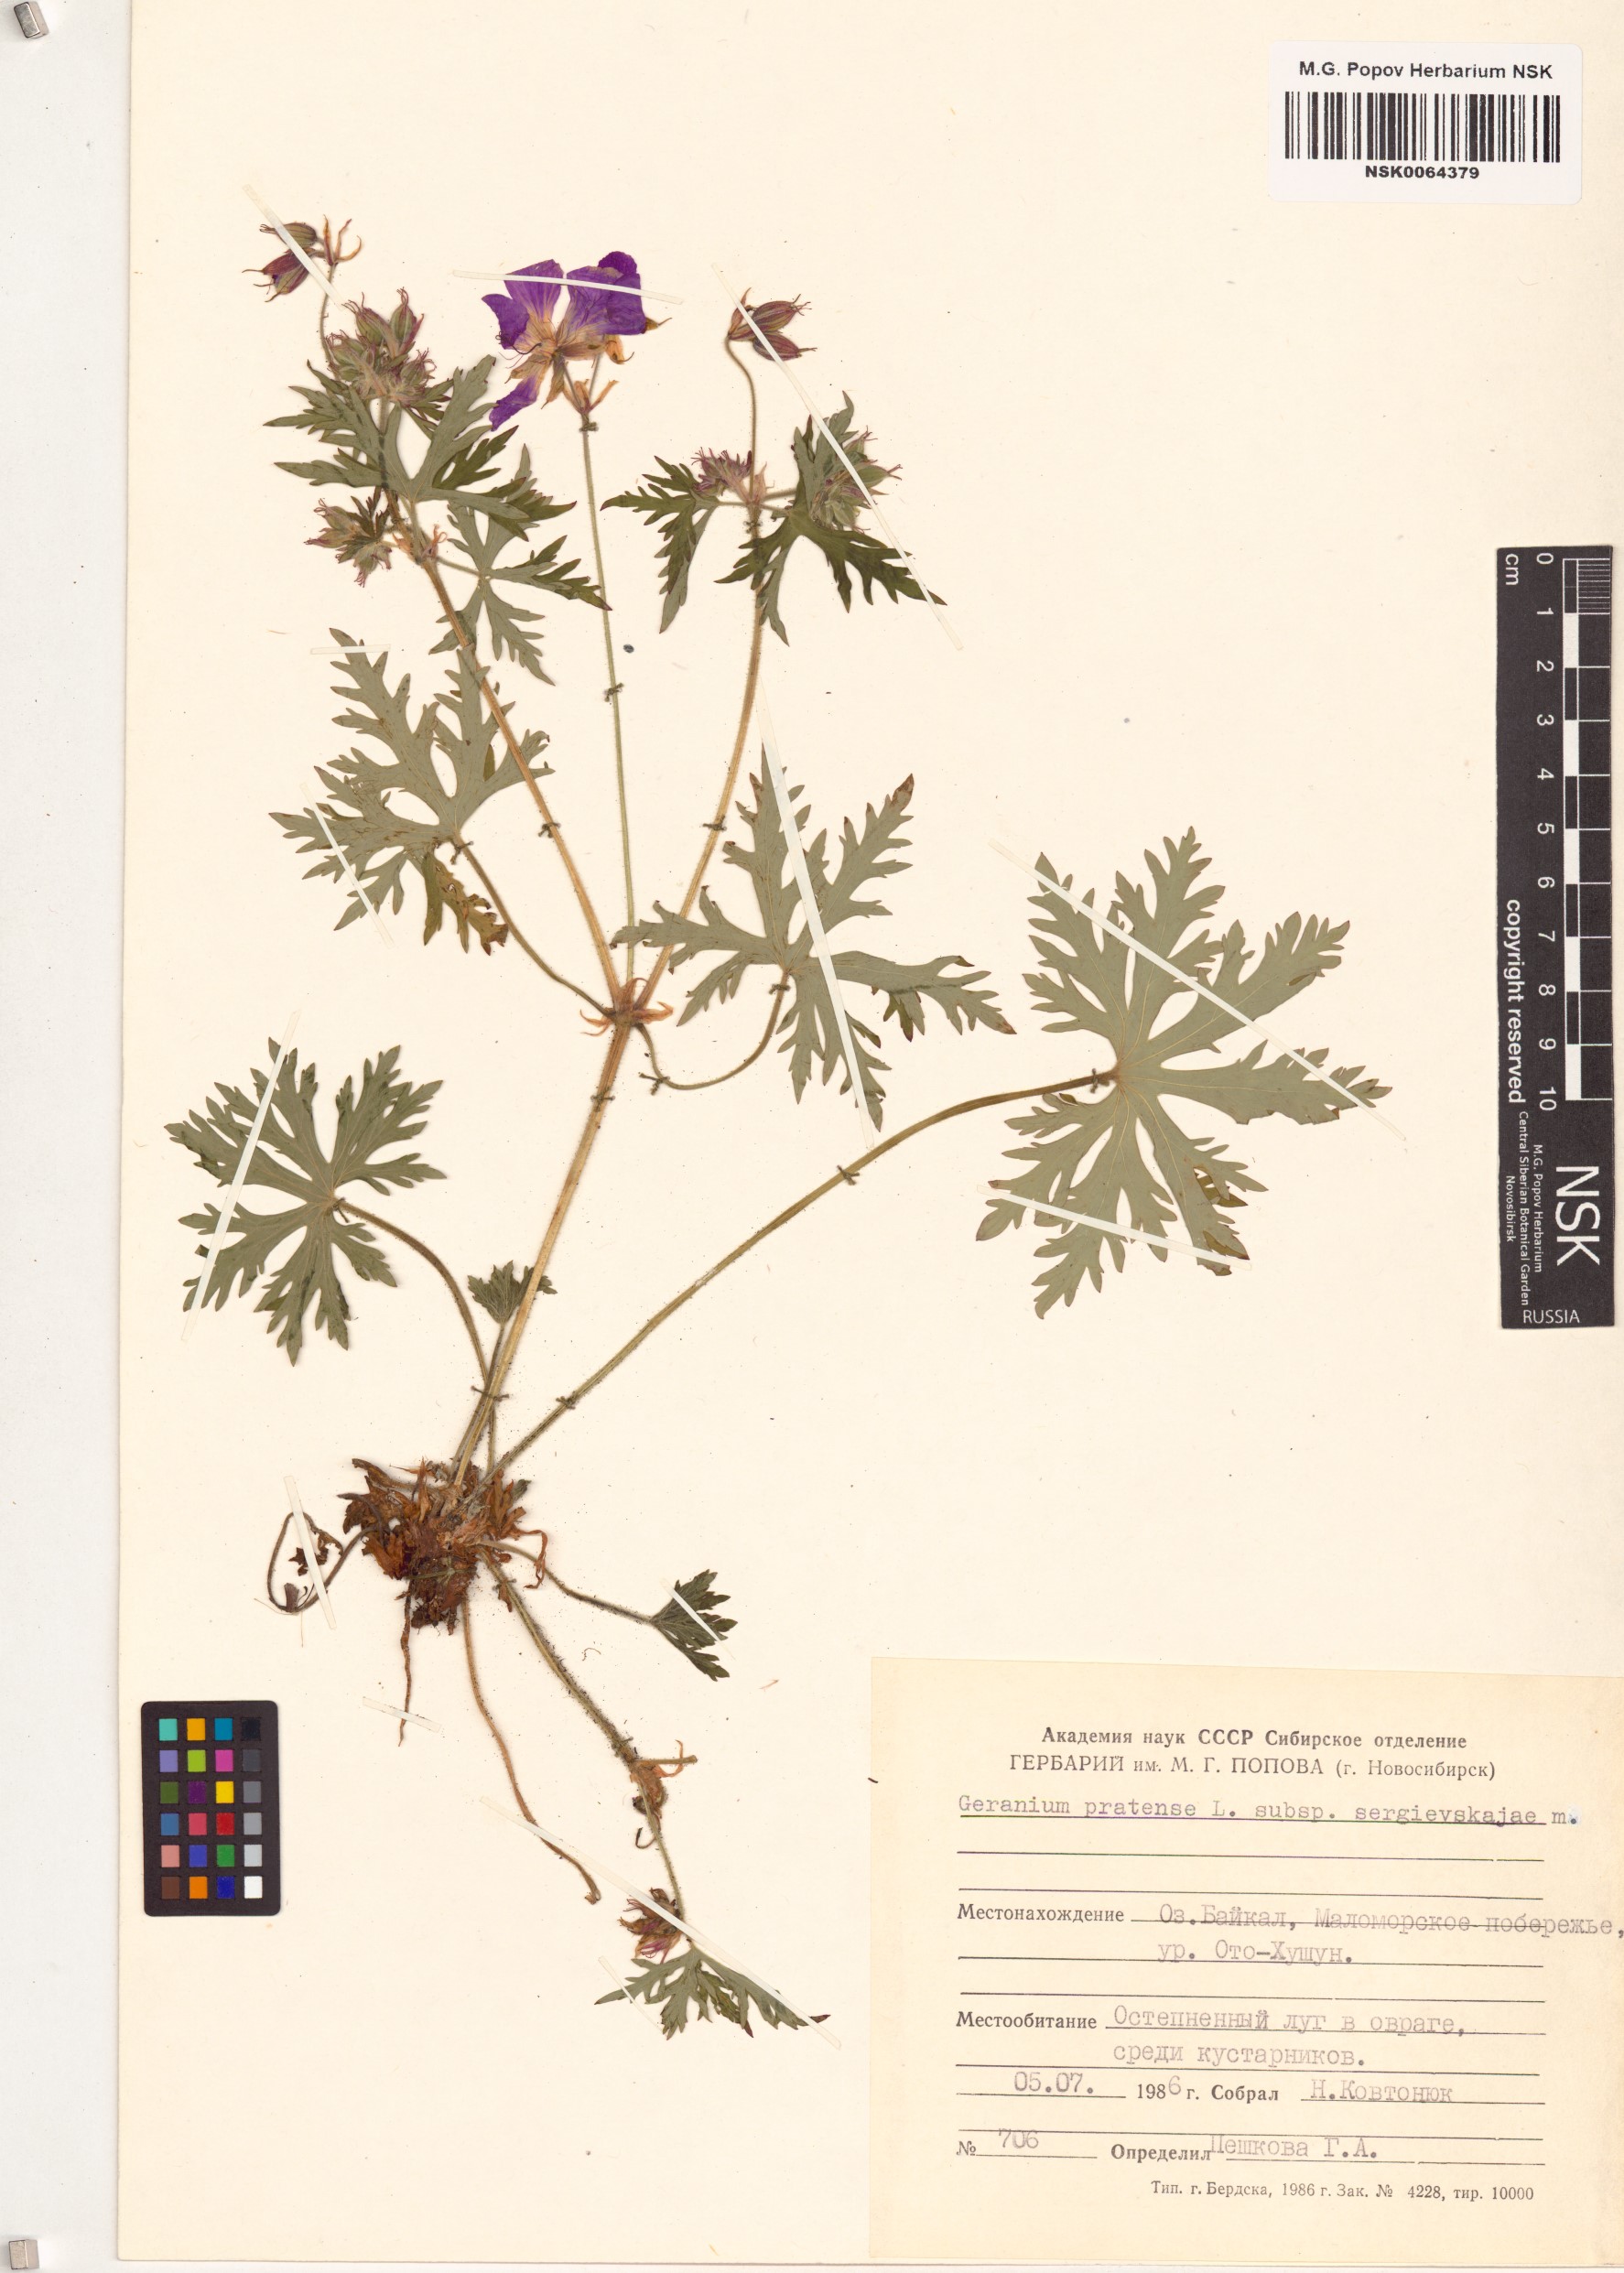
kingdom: Plantae
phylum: Tracheophyta
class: Magnoliopsida
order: Geraniales
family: Geraniaceae
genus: Geranium
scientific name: Geranium pratense
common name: Meadow crane's-bill
